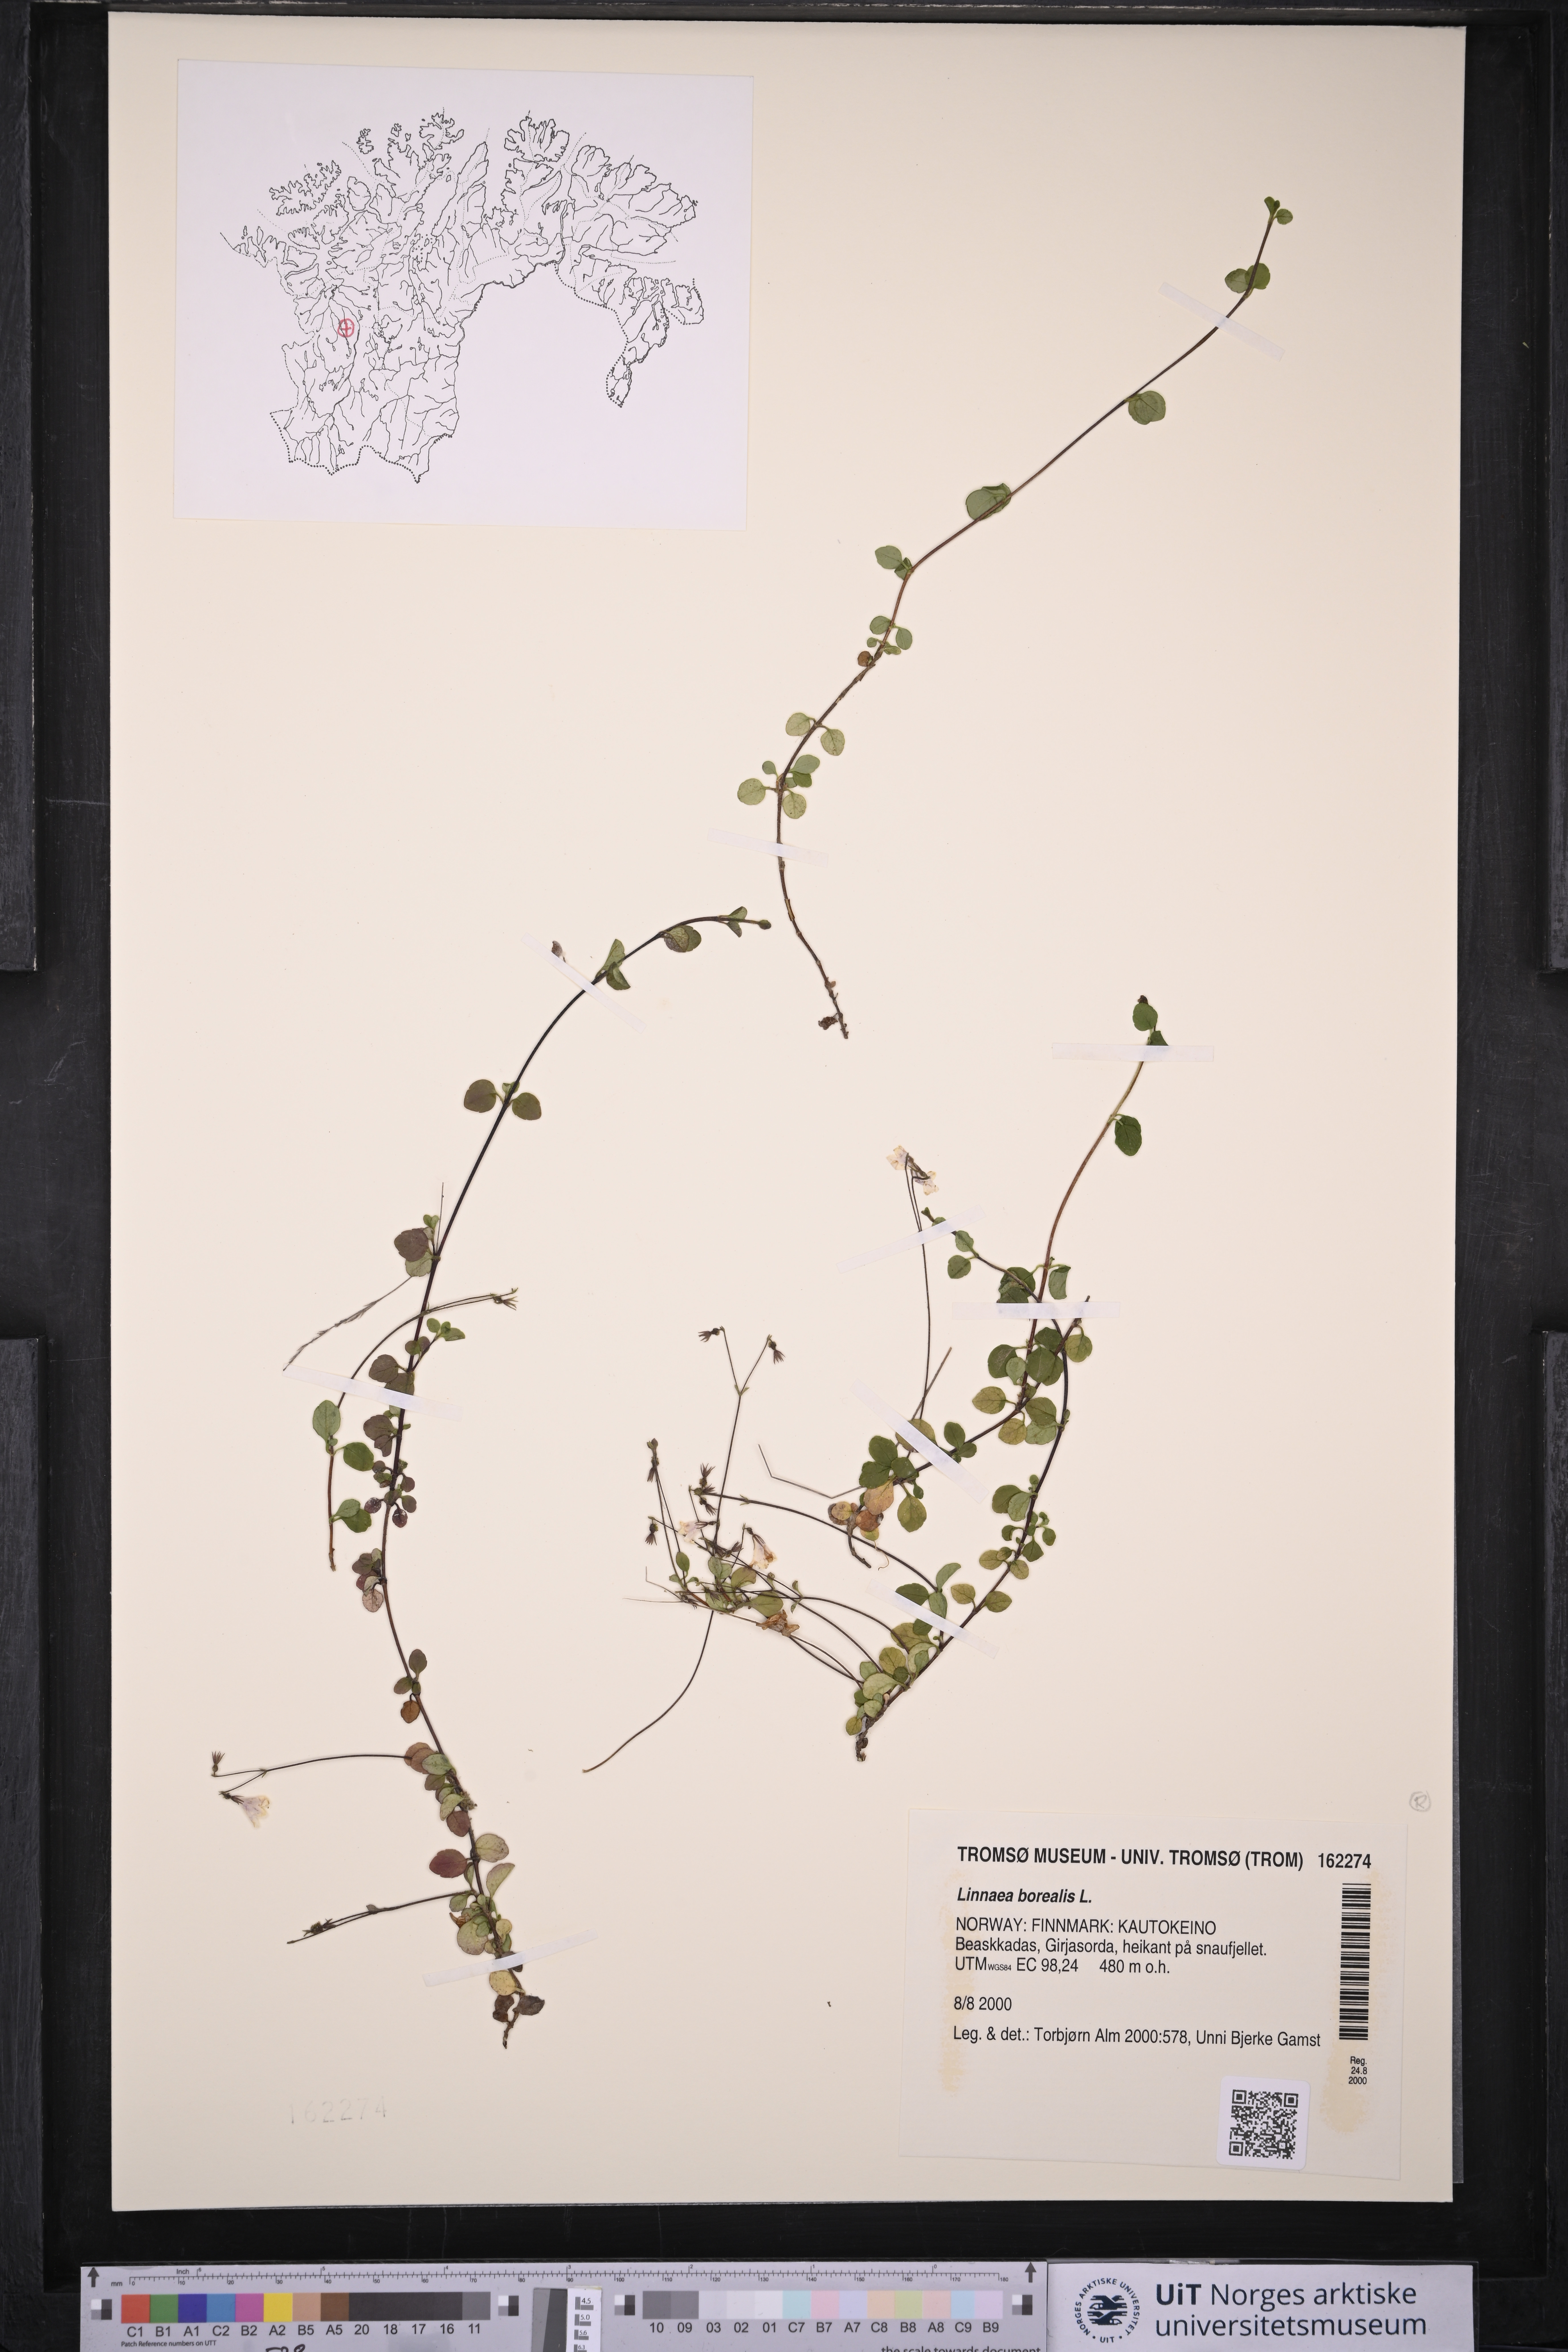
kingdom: Plantae
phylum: Tracheophyta
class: Magnoliopsida
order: Dipsacales
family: Caprifoliaceae
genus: Linnaea
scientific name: Linnaea borealis
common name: Twinflower
